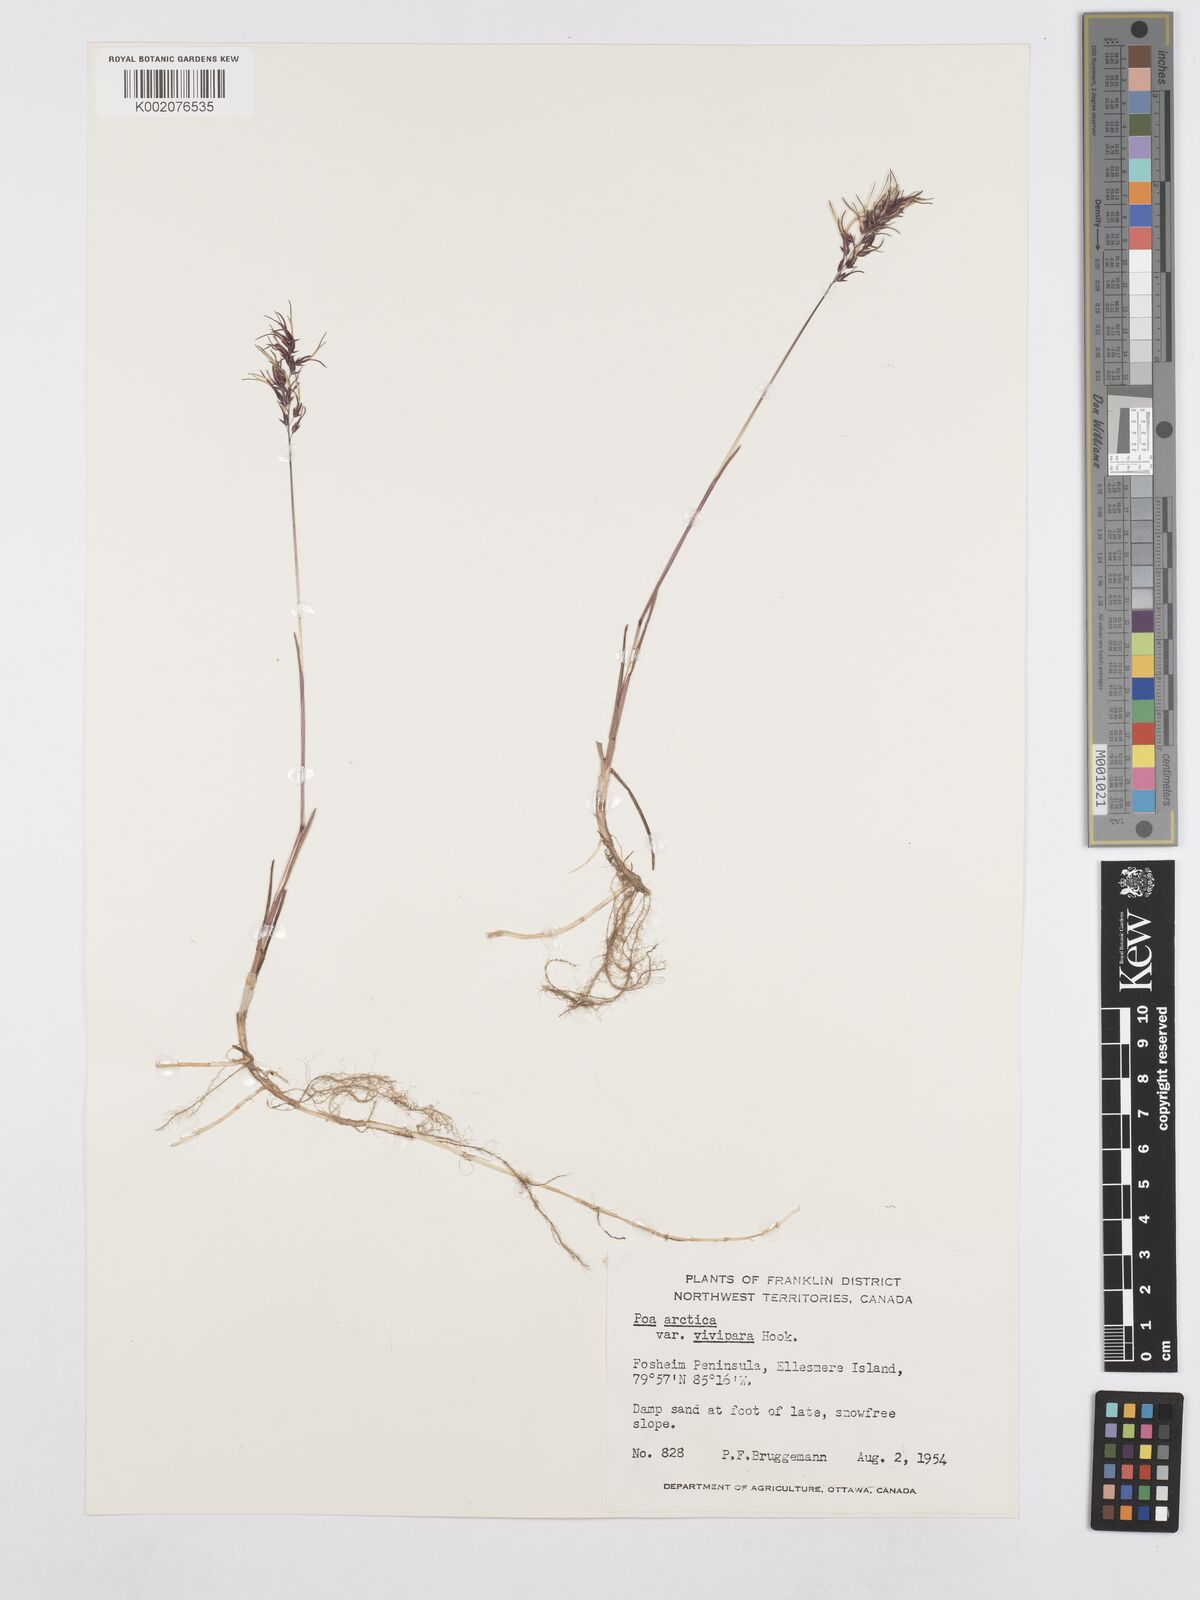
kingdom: Plantae
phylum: Tracheophyta
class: Liliopsida
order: Poales
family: Poaceae
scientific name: Poaceae
